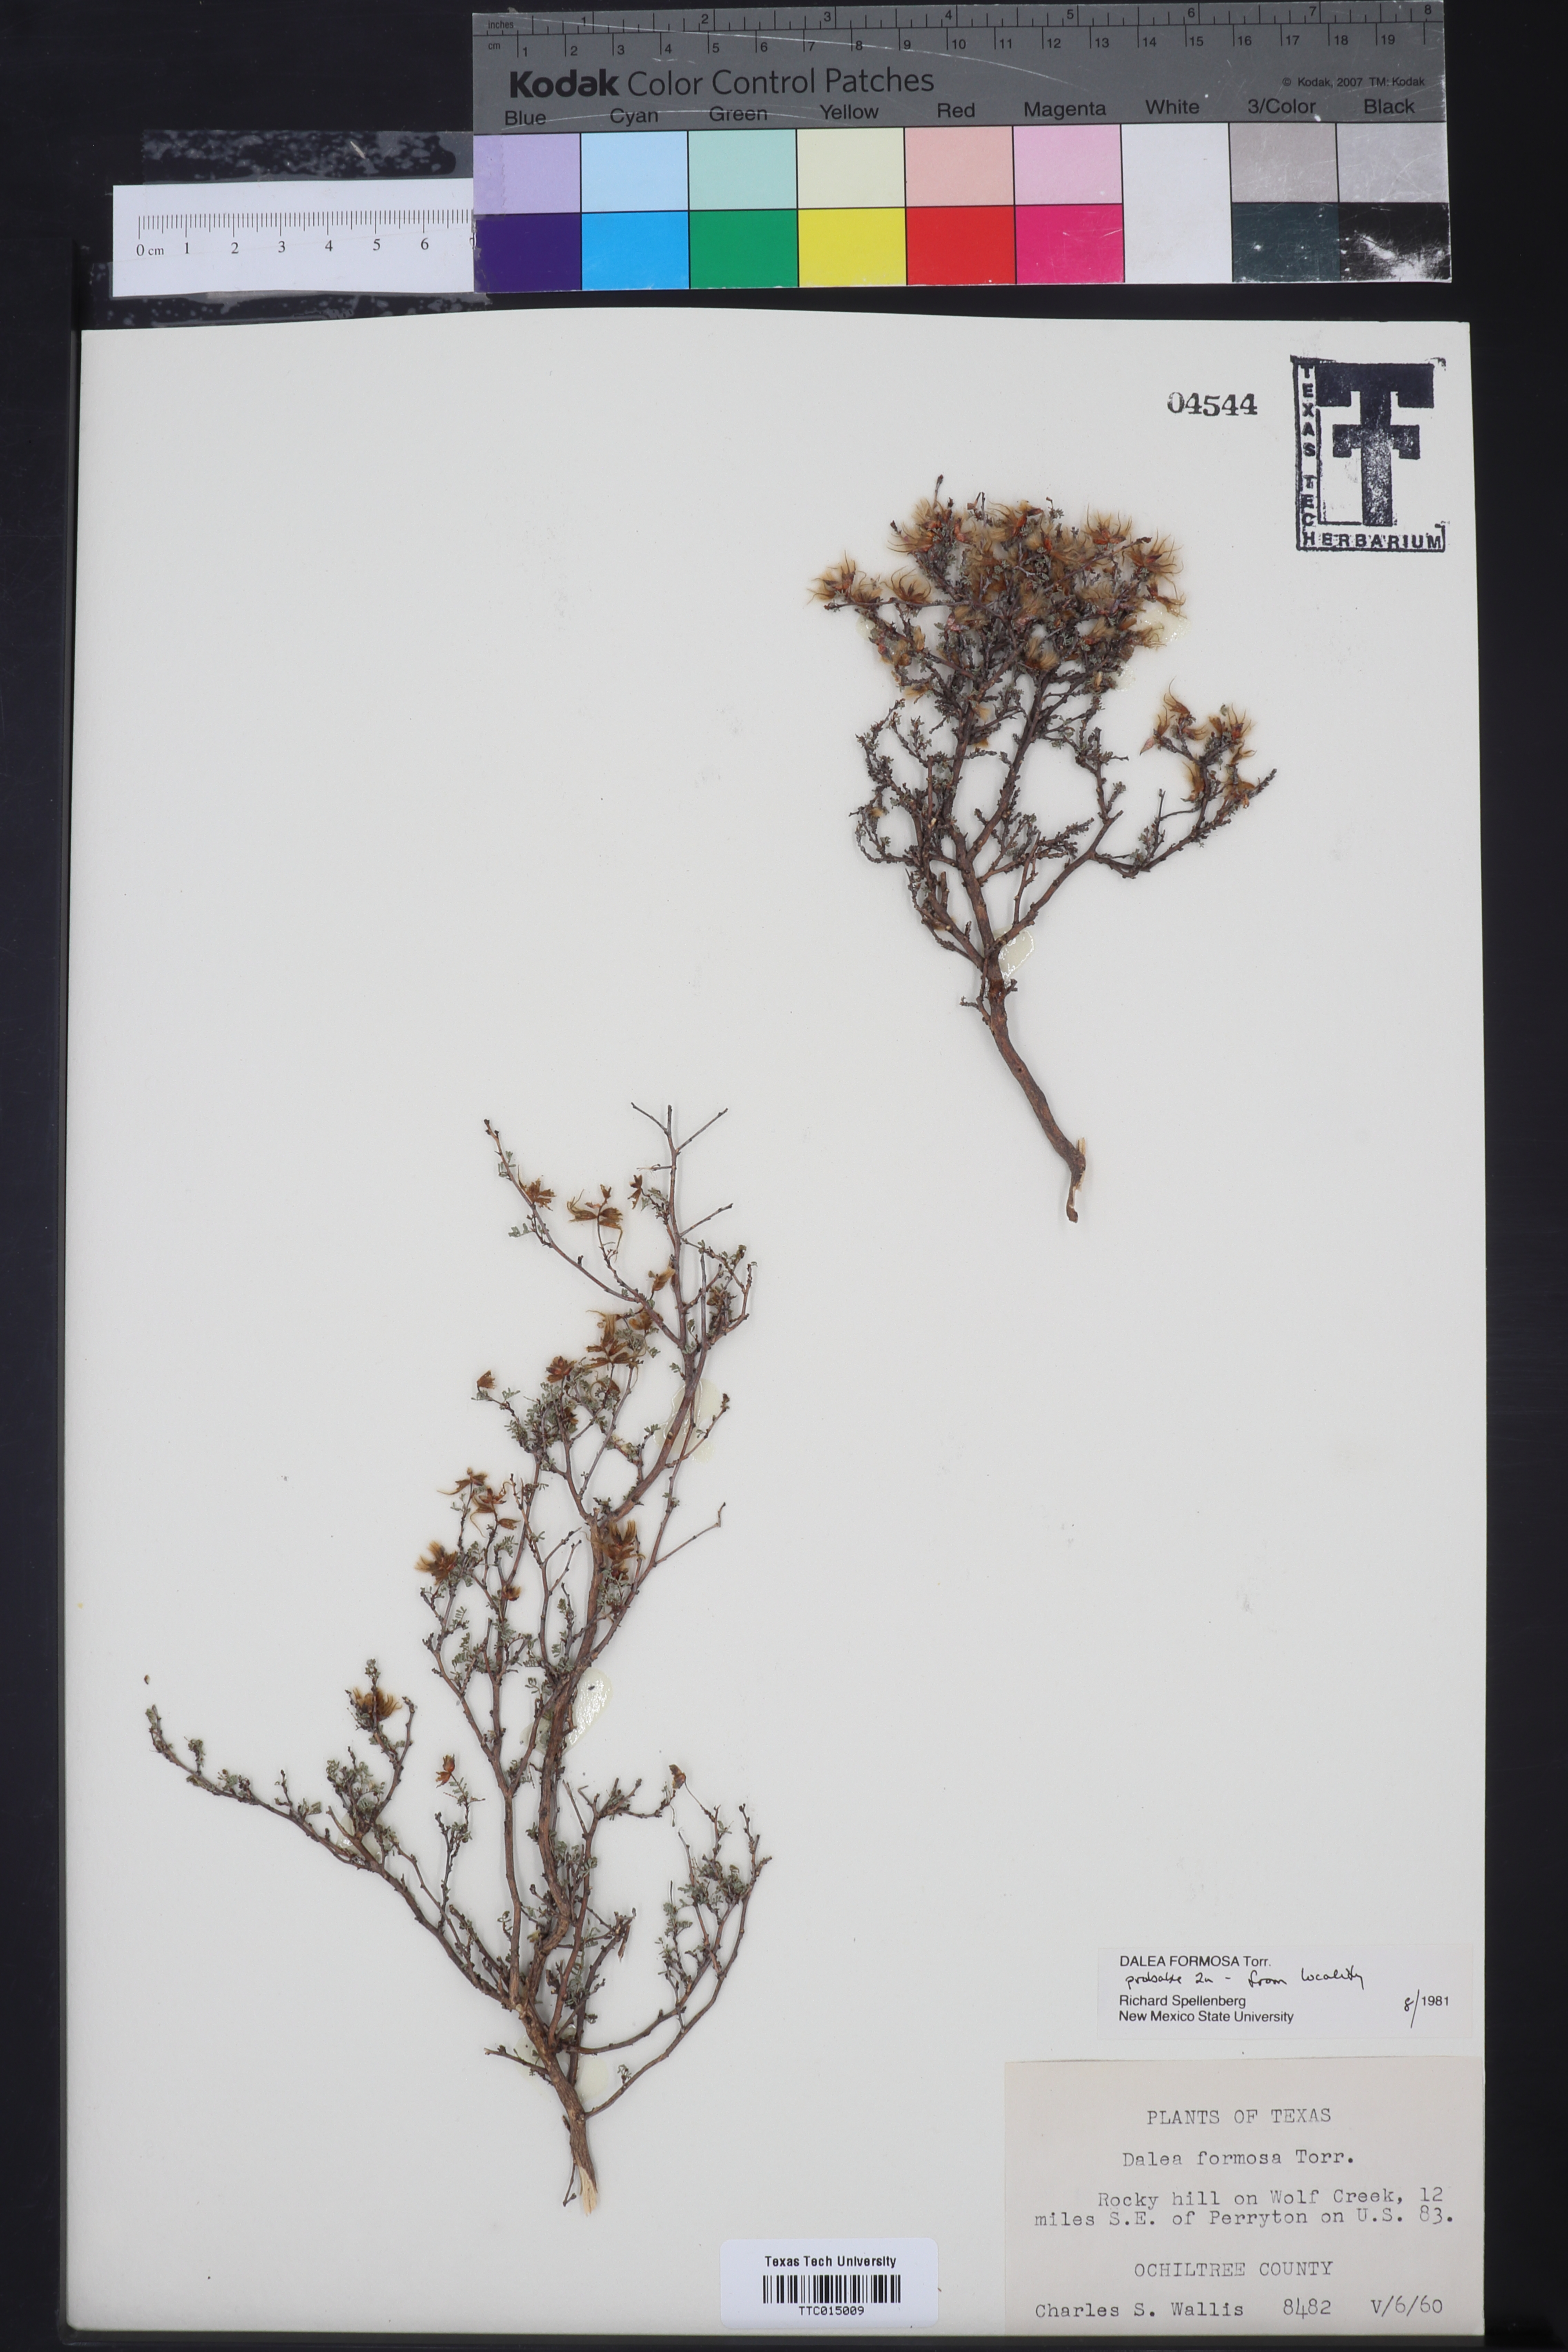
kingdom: Plantae
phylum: Tracheophyta
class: Magnoliopsida
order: Fabales
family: Fabaceae
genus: Dalea
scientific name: Dalea formosa
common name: Feather-plume dalea
